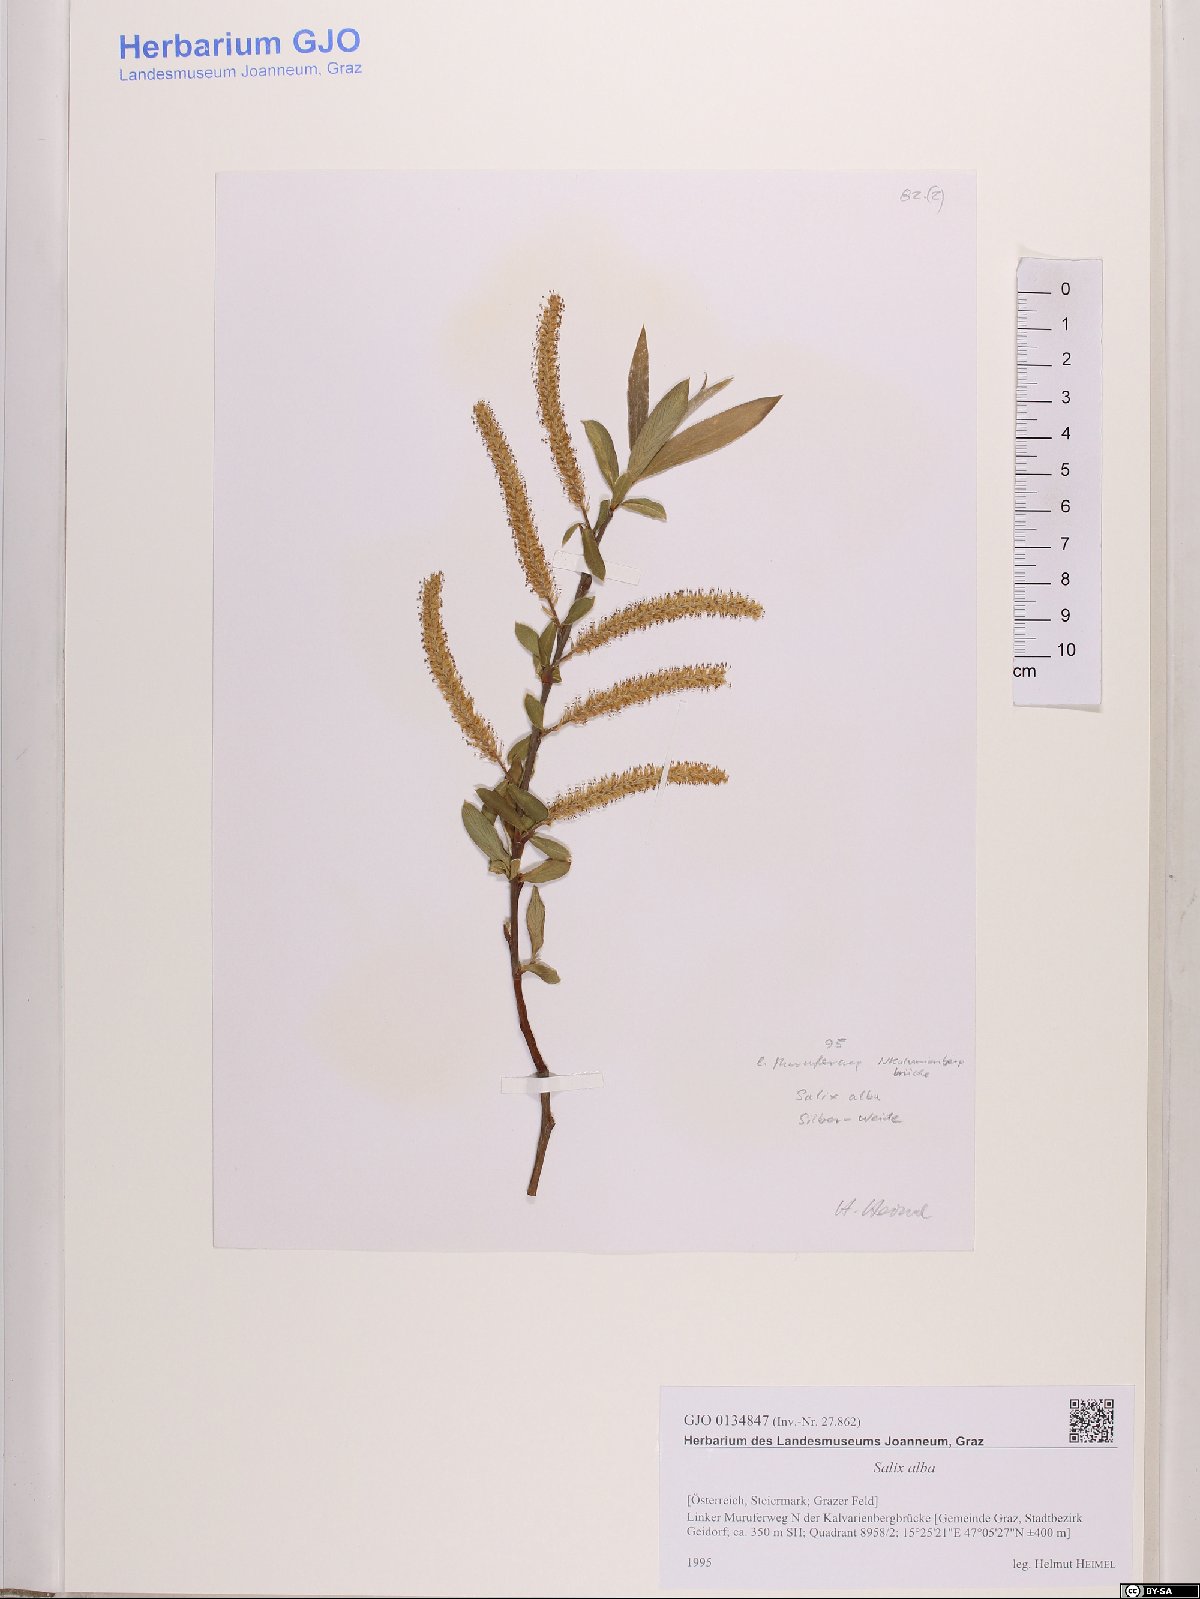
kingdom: Plantae
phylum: Tracheophyta
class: Magnoliopsida
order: Malpighiales
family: Salicaceae
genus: Salix
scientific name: Salix alba
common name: White willow
